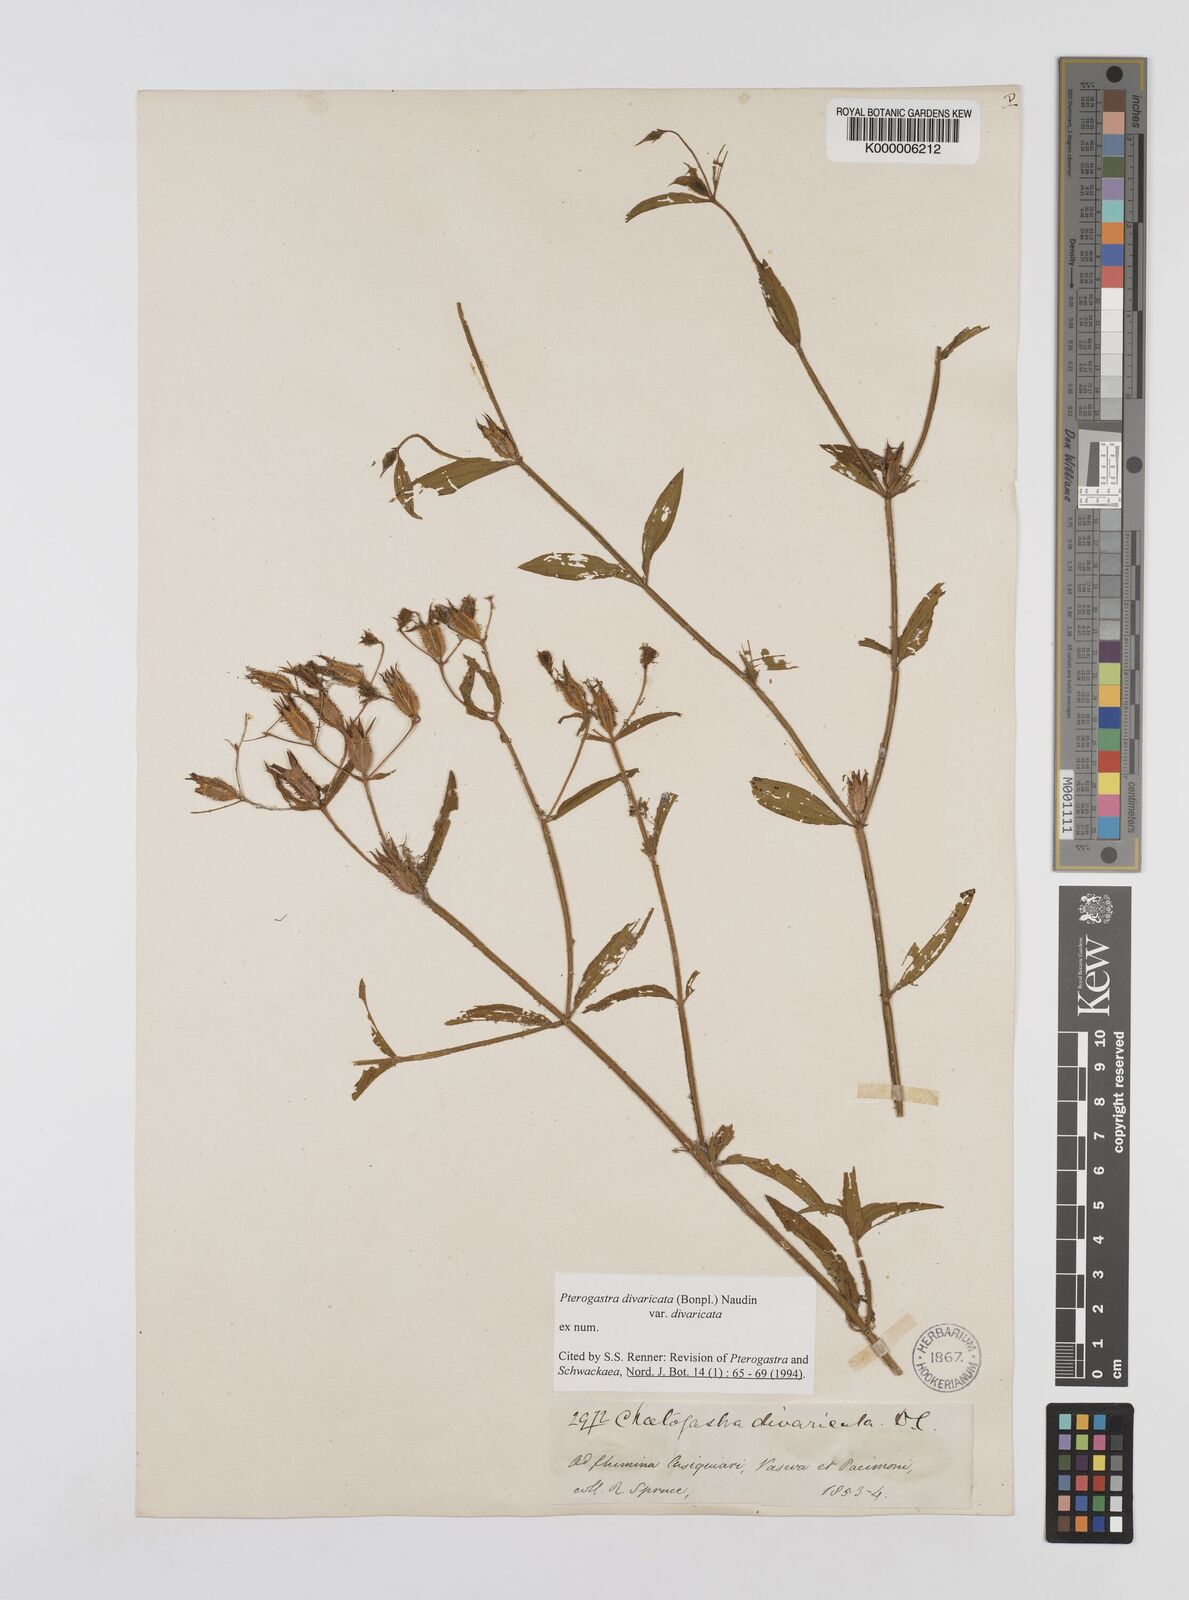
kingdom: Plantae
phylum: Tracheophyta
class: Magnoliopsida
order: Myrtales
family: Melastomataceae
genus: Pterogastra
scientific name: Pterogastra
